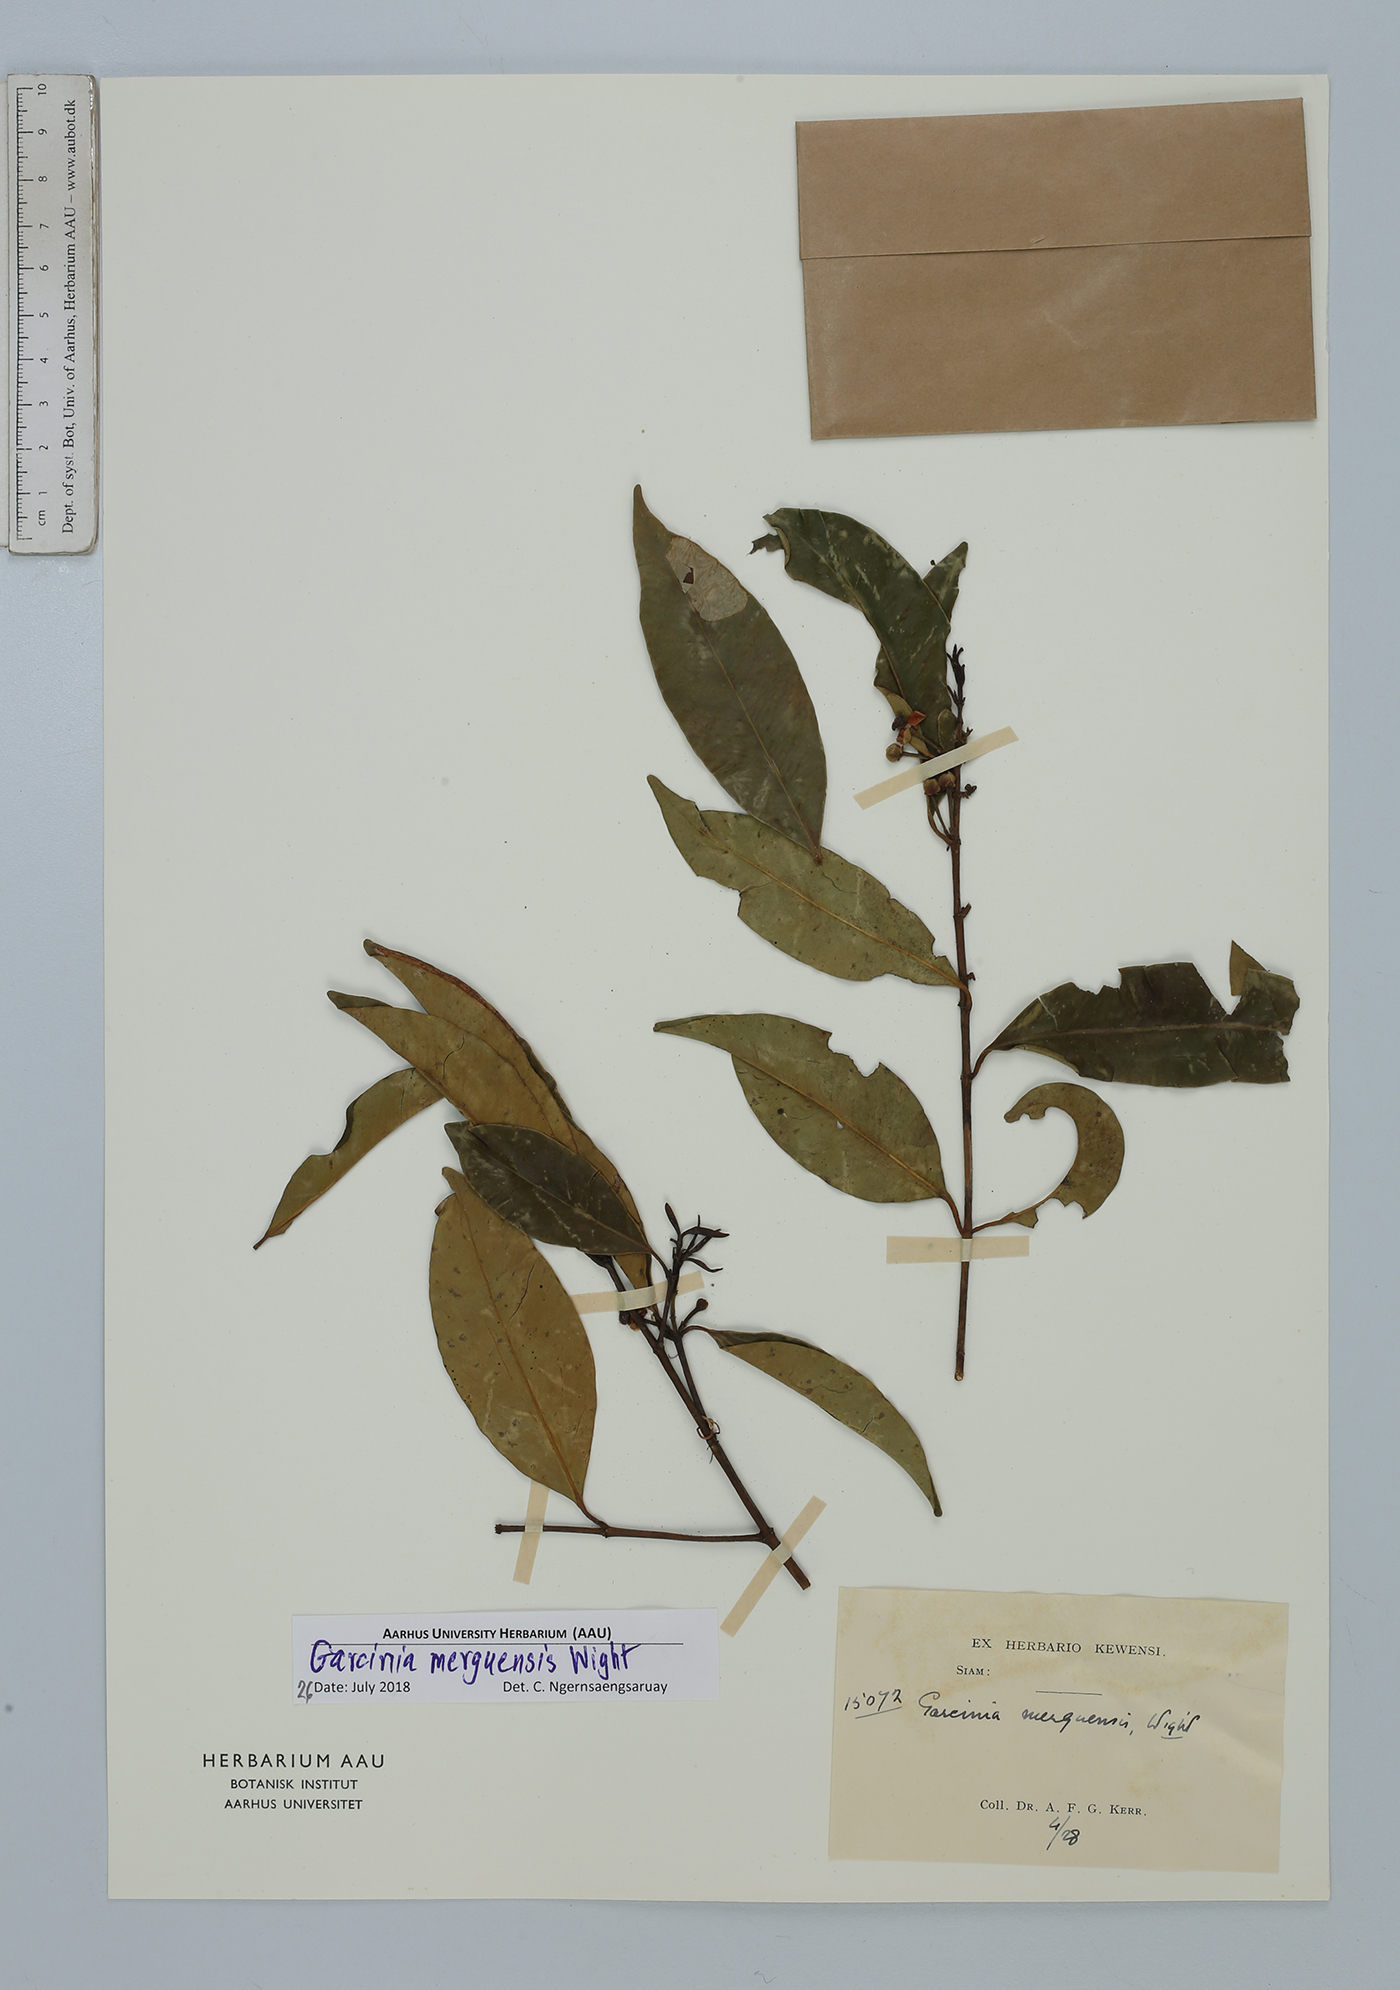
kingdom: Plantae
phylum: Tracheophyta
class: Magnoliopsida
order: Malpighiales
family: Clusiaceae
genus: Garcinia
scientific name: Garcinia merguensis
